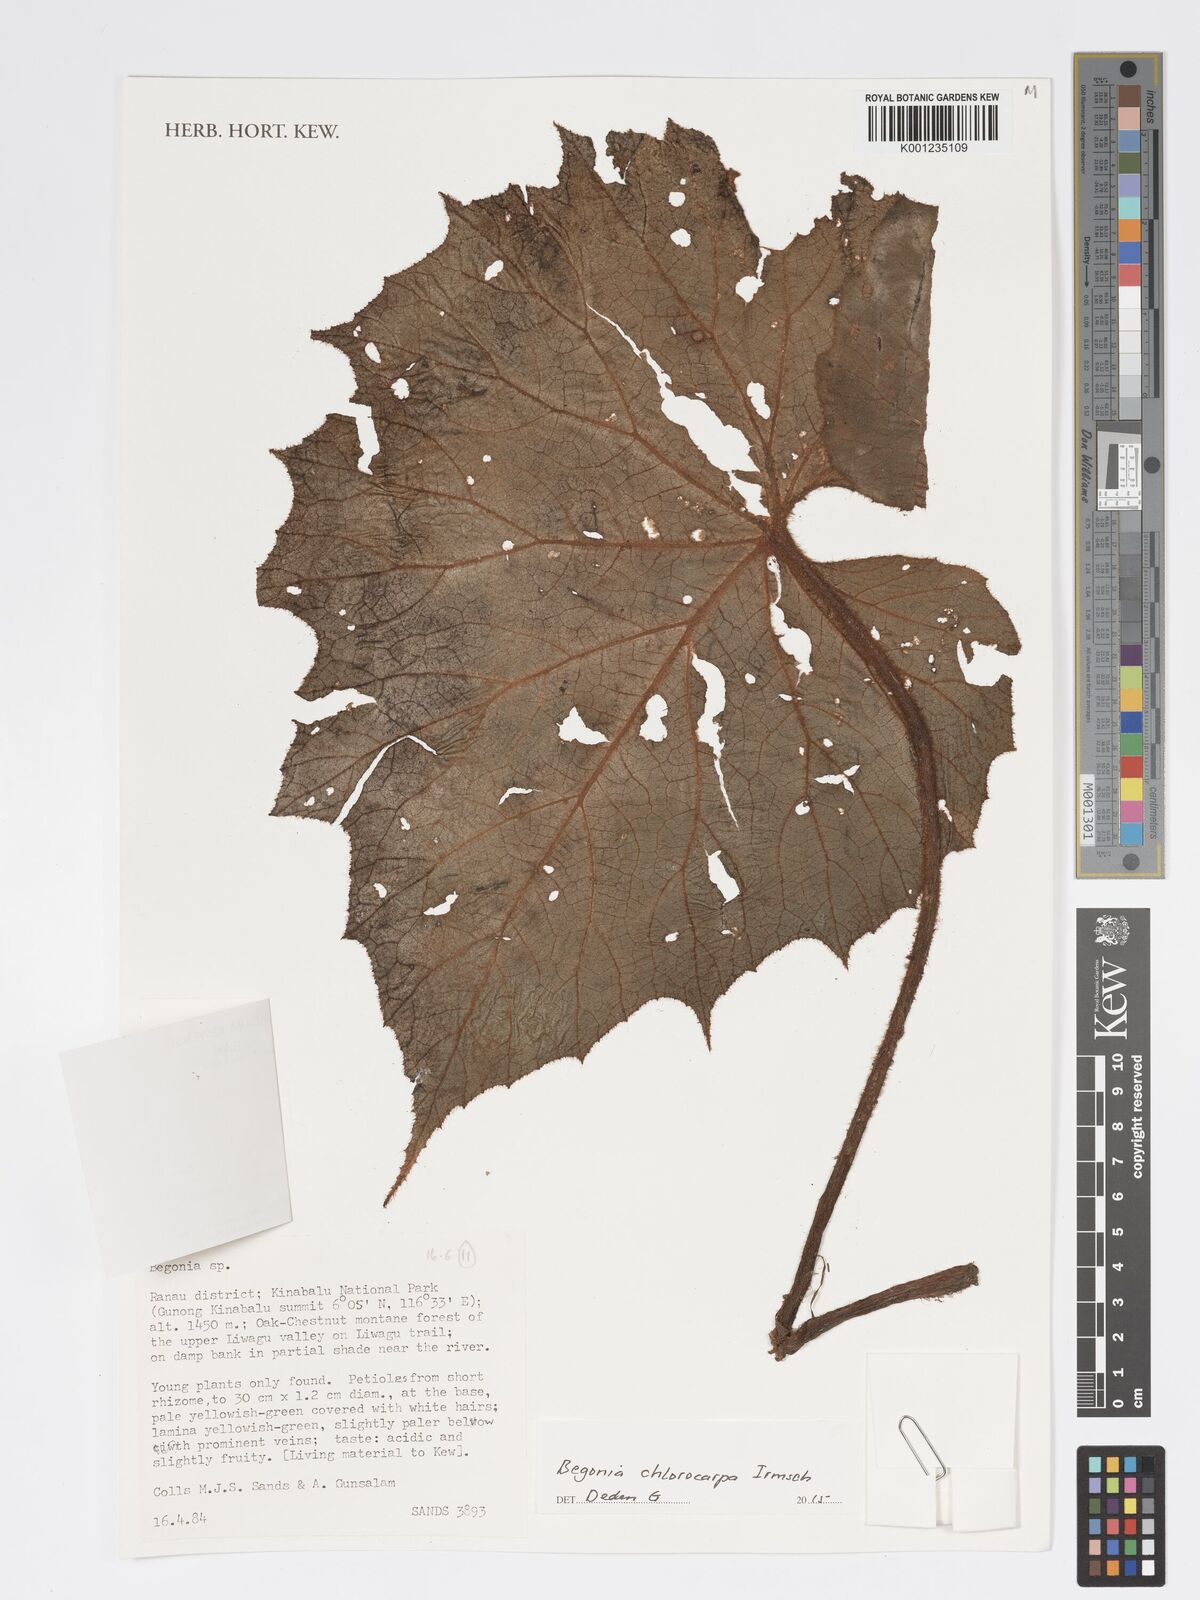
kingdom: Plantae
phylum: Tracheophyta
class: Magnoliopsida
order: Cucurbitales
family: Begoniaceae
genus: Begonia
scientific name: Begonia chlorocarpa
